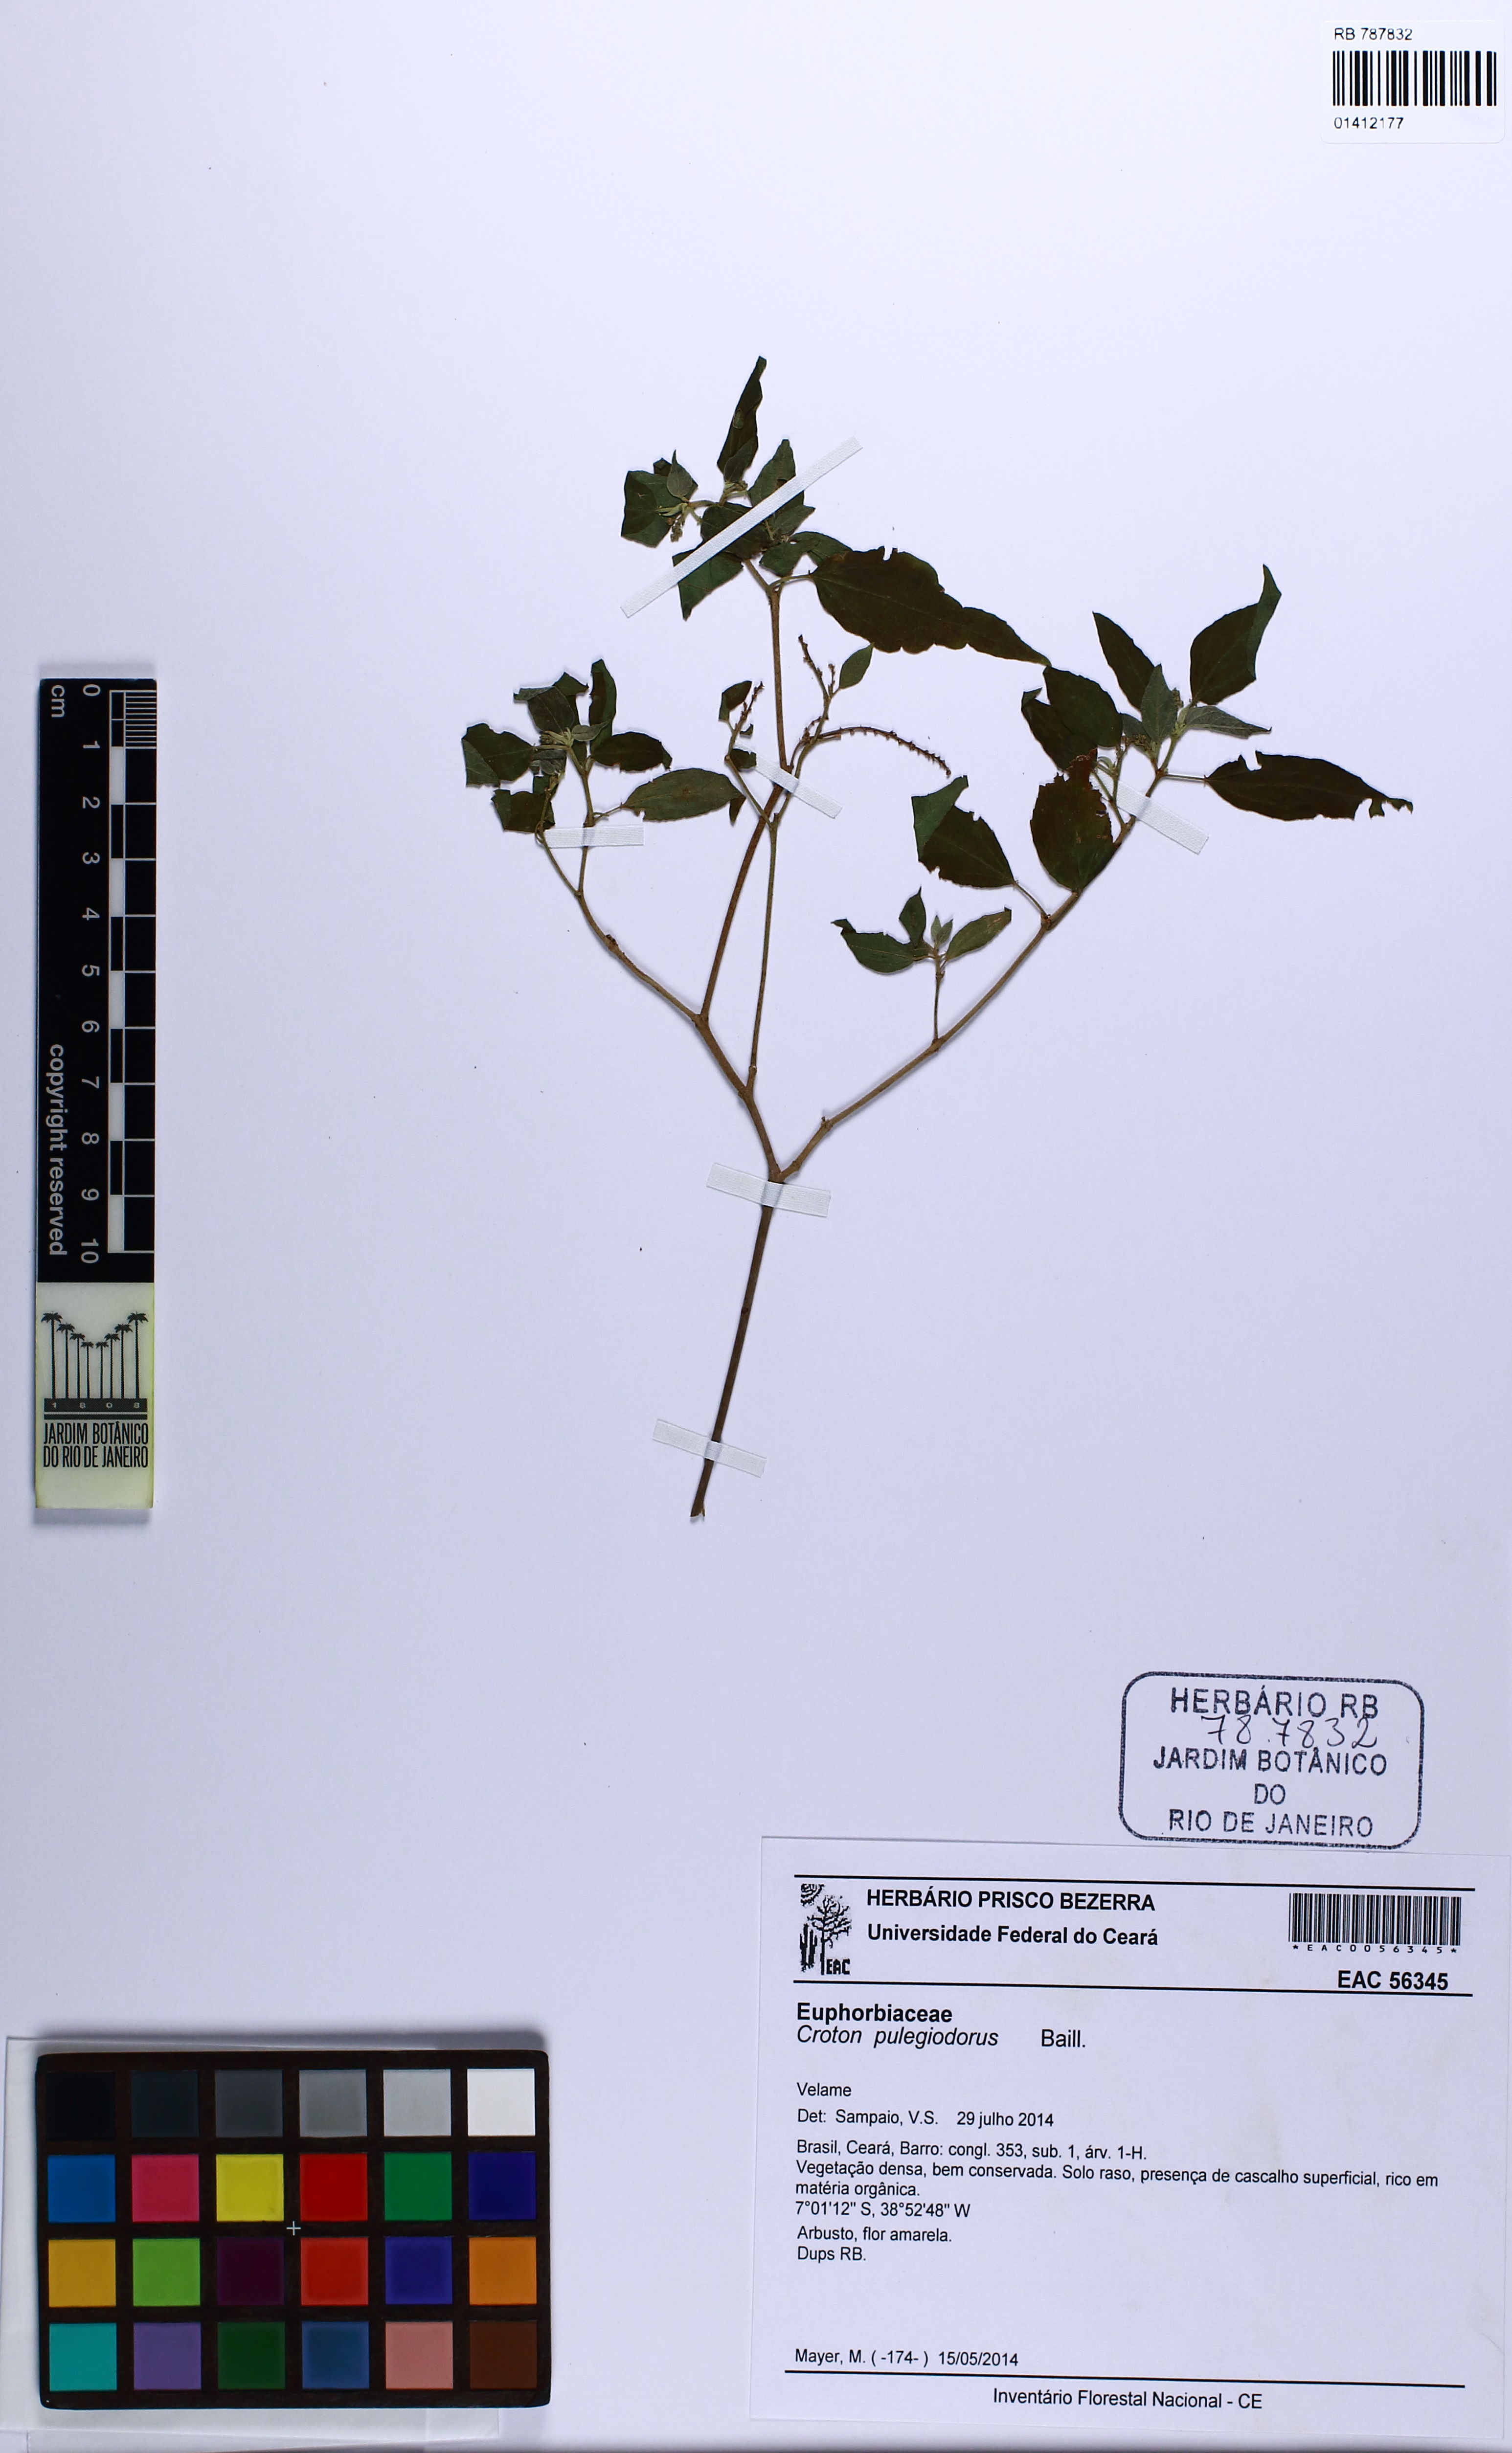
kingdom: Plantae
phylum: Tracheophyta
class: Magnoliopsida
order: Malpighiales
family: Euphorbiaceae
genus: Croton
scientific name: Croton pulegiodorus
